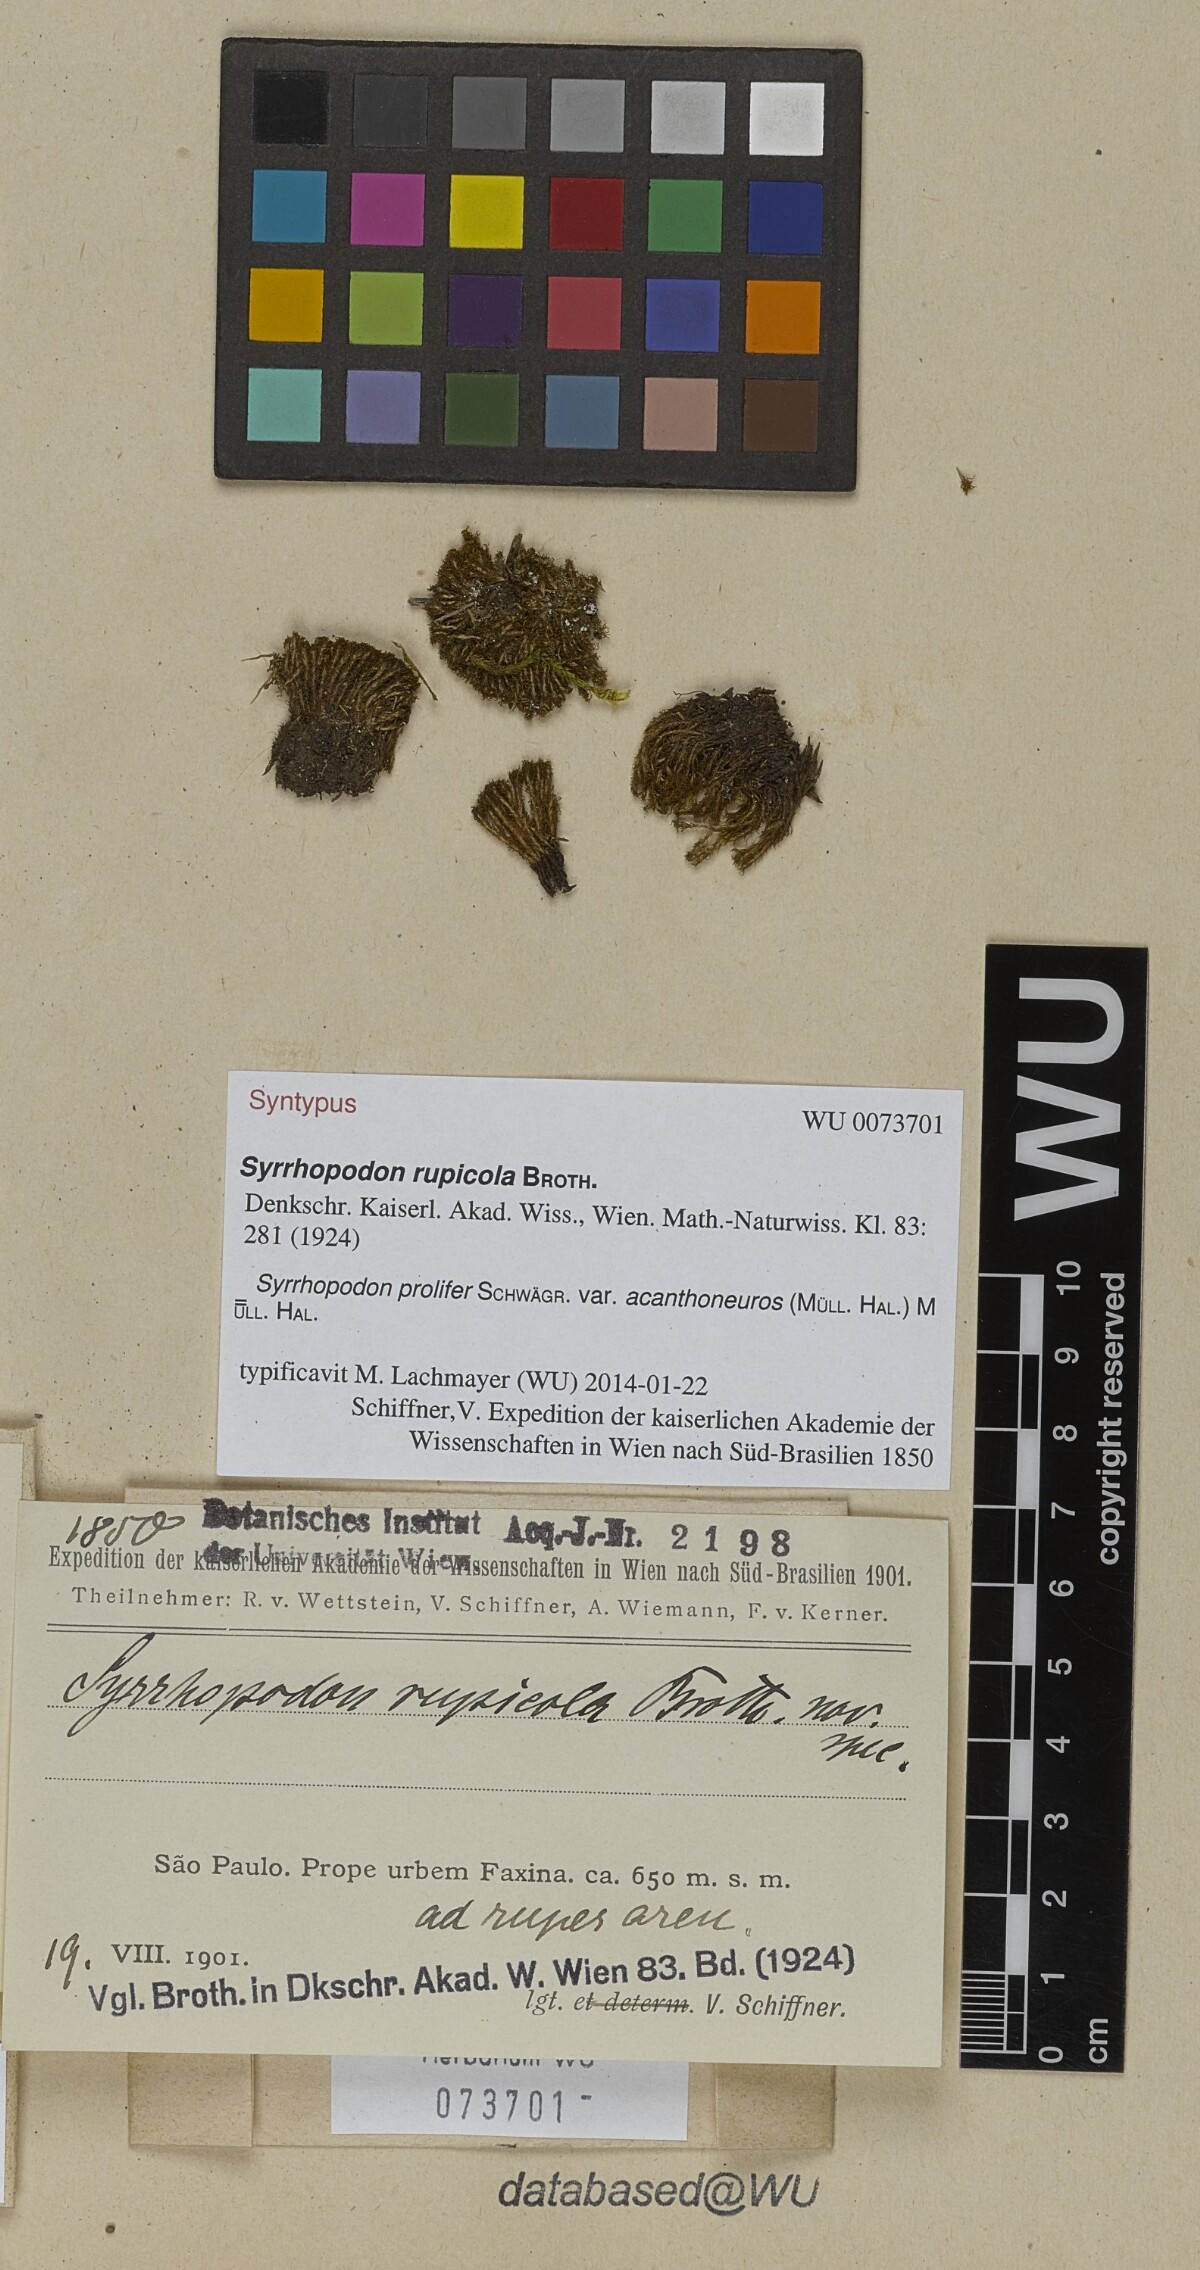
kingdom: Plantae
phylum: Bryophyta
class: Bryopsida
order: Dicranales
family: Calymperaceae
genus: Syrrhopodon
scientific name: Syrrhopodon prolifer
